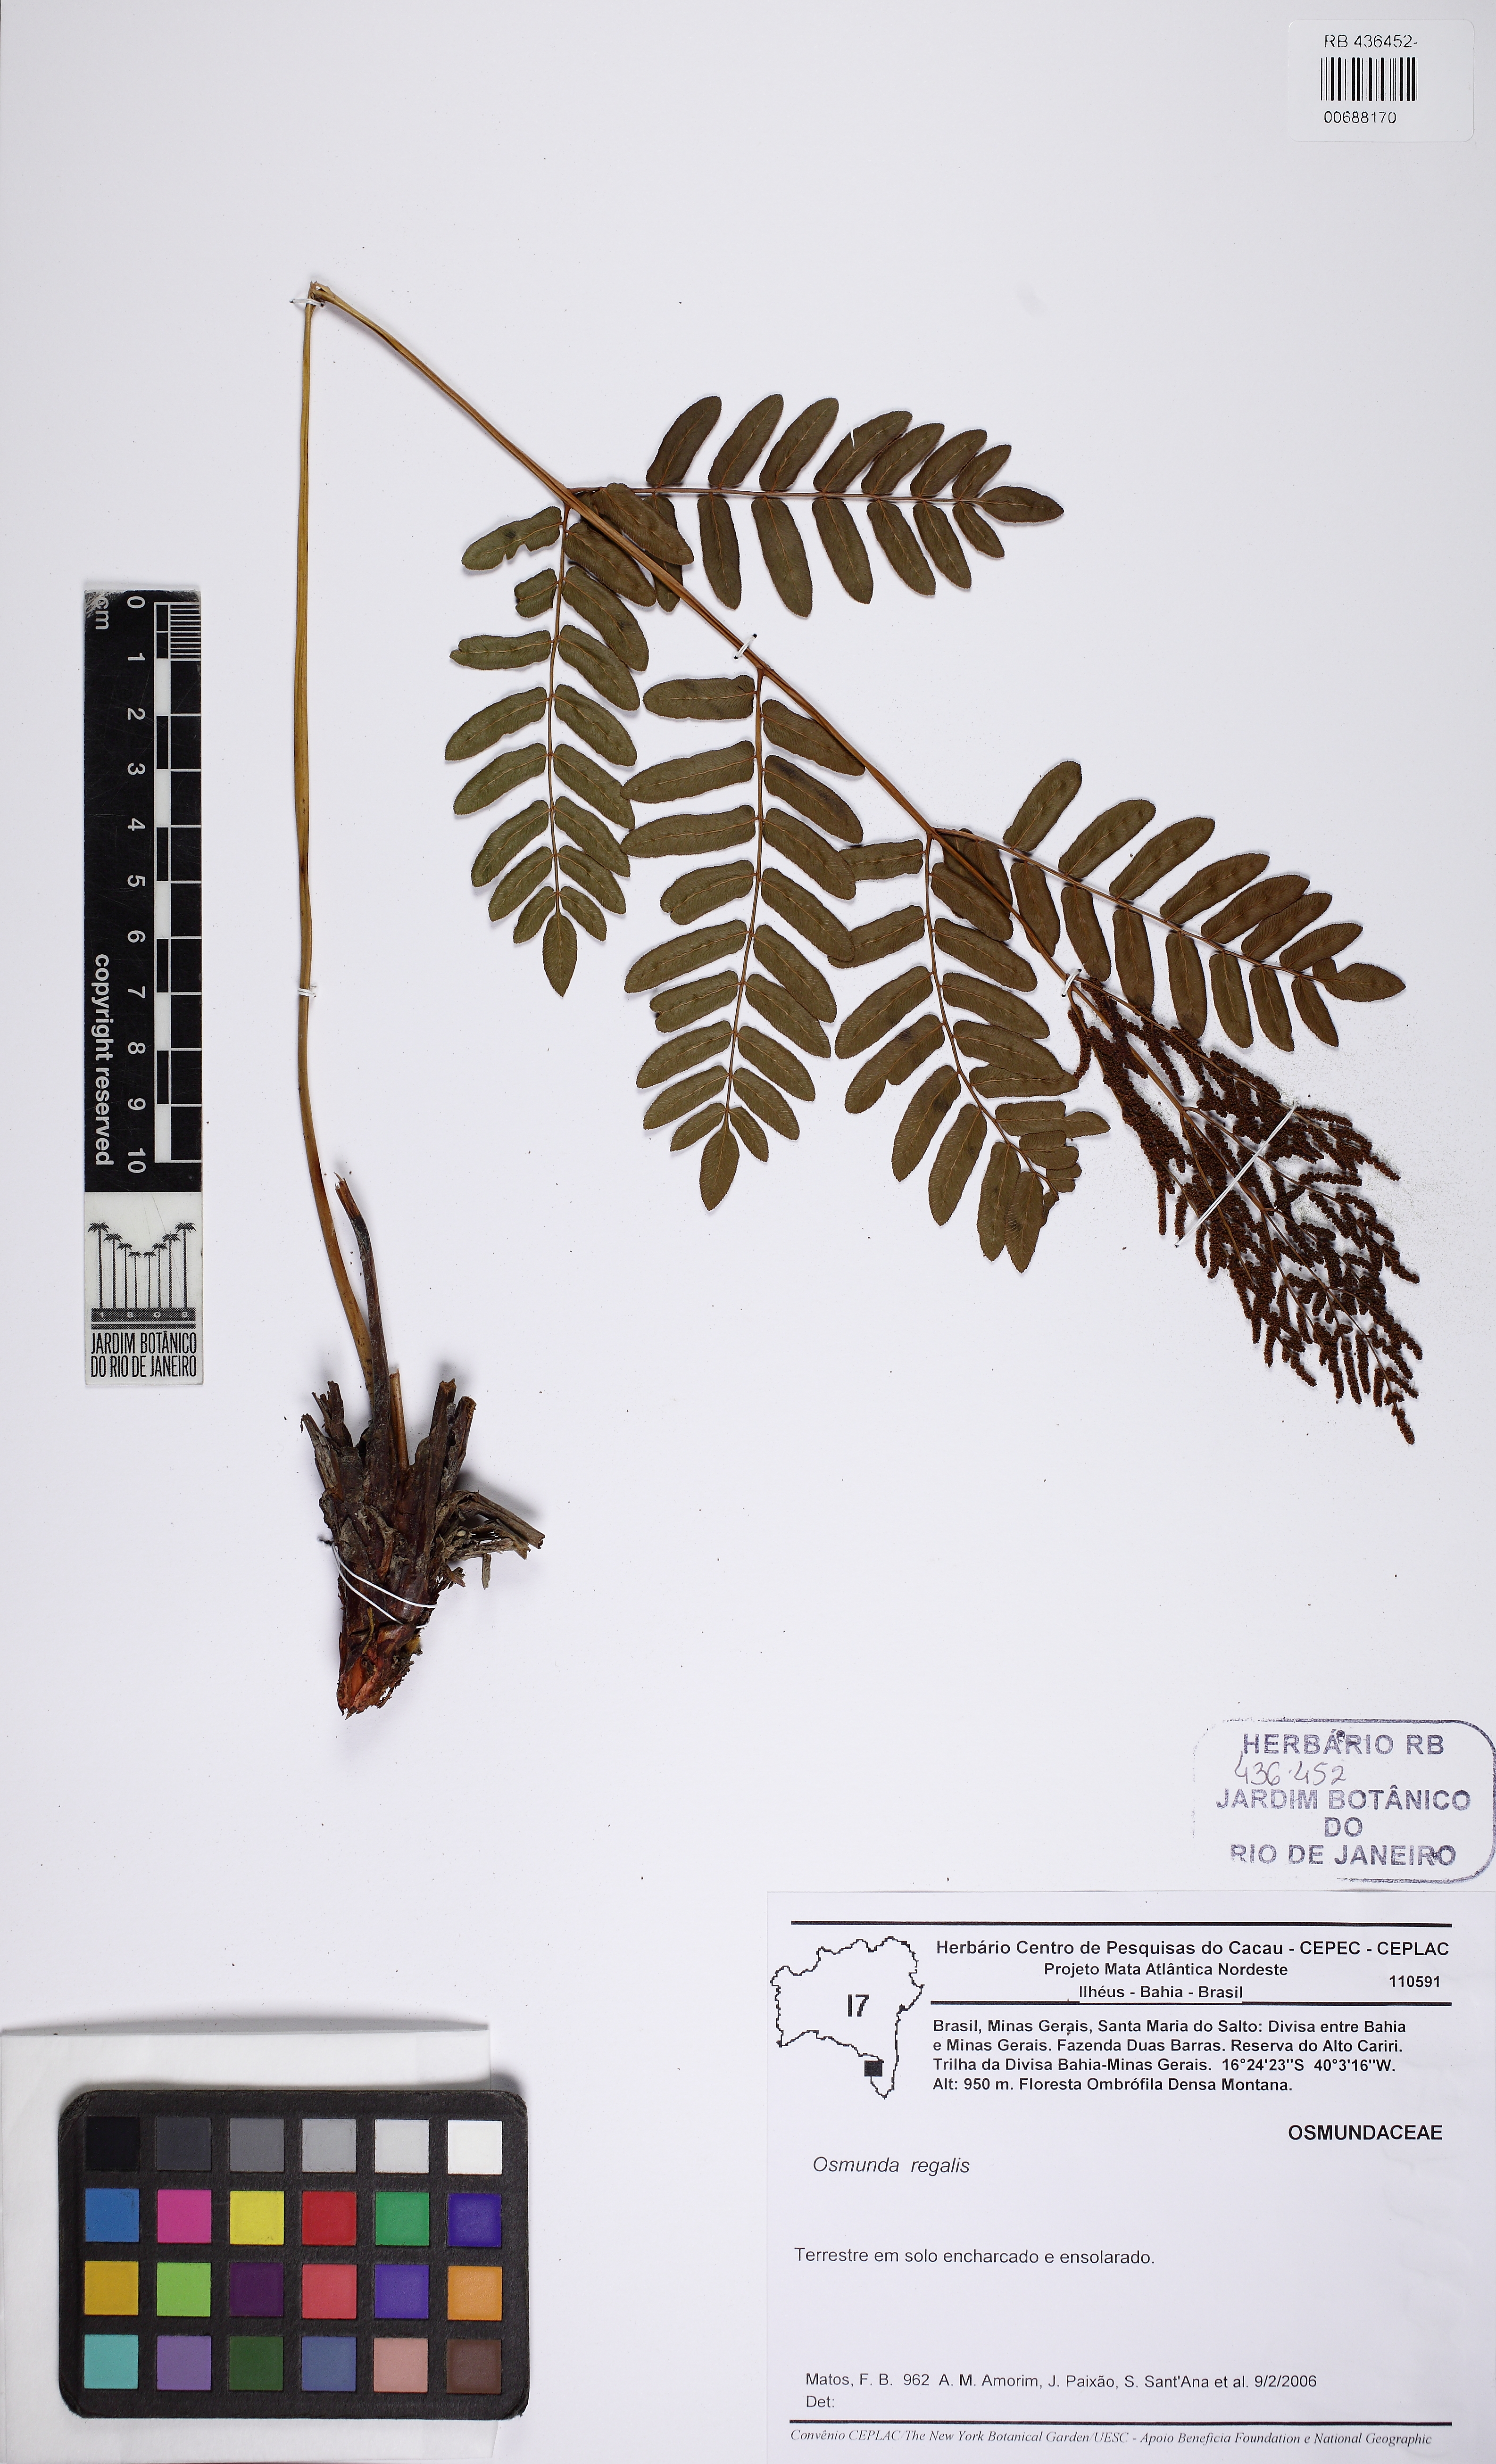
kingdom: Plantae
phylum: Tracheophyta
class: Polypodiopsida
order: Osmundales
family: Osmundaceae
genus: Osmunda
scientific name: Osmunda regalis
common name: Royal fern
